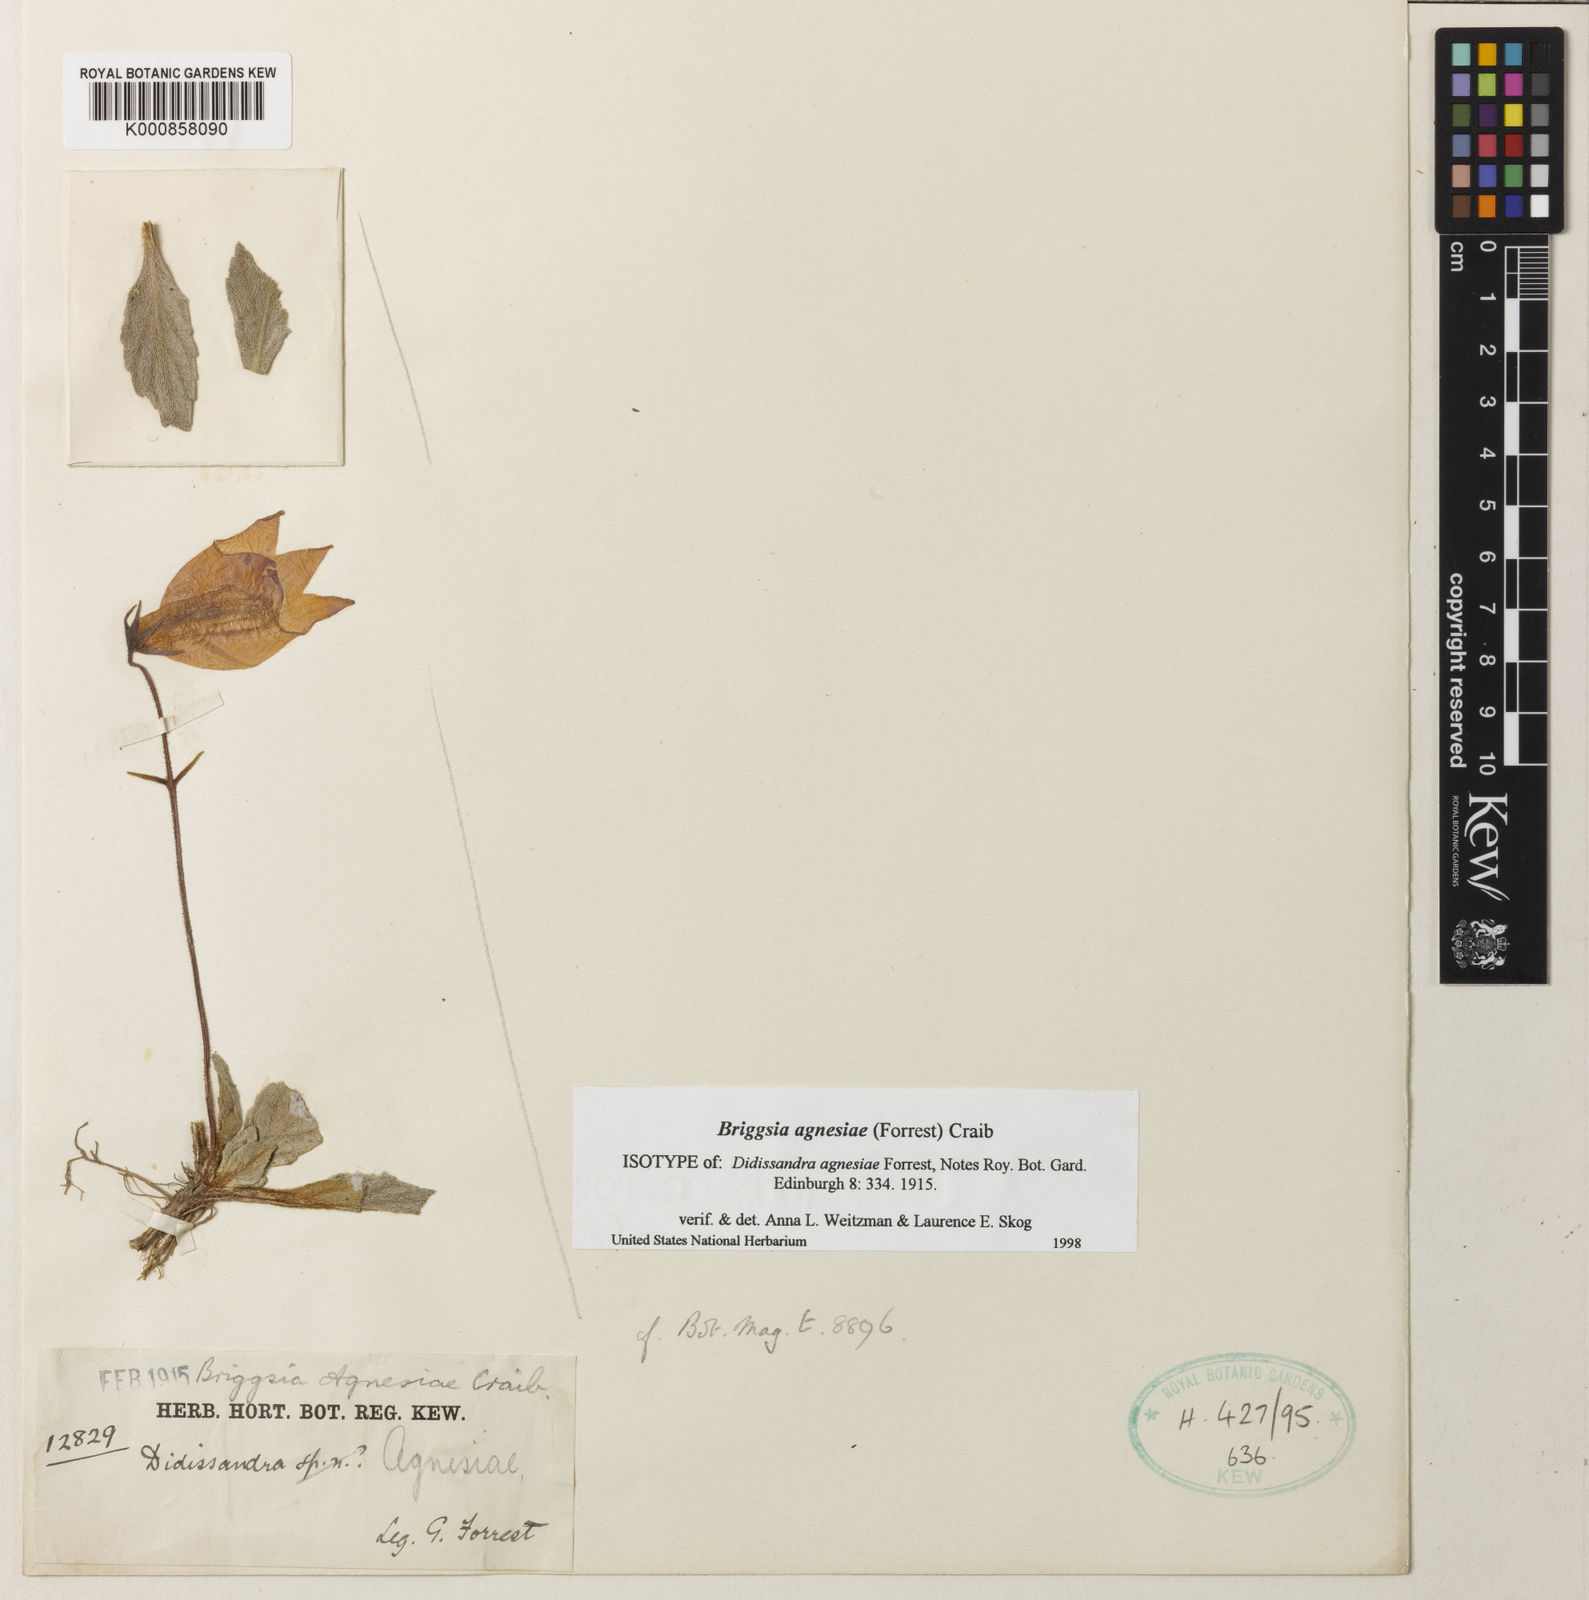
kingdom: Plantae
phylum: Tracheophyta
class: Magnoliopsida
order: Lamiales
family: Gesneriaceae
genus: Oreocharis
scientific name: Oreocharis
